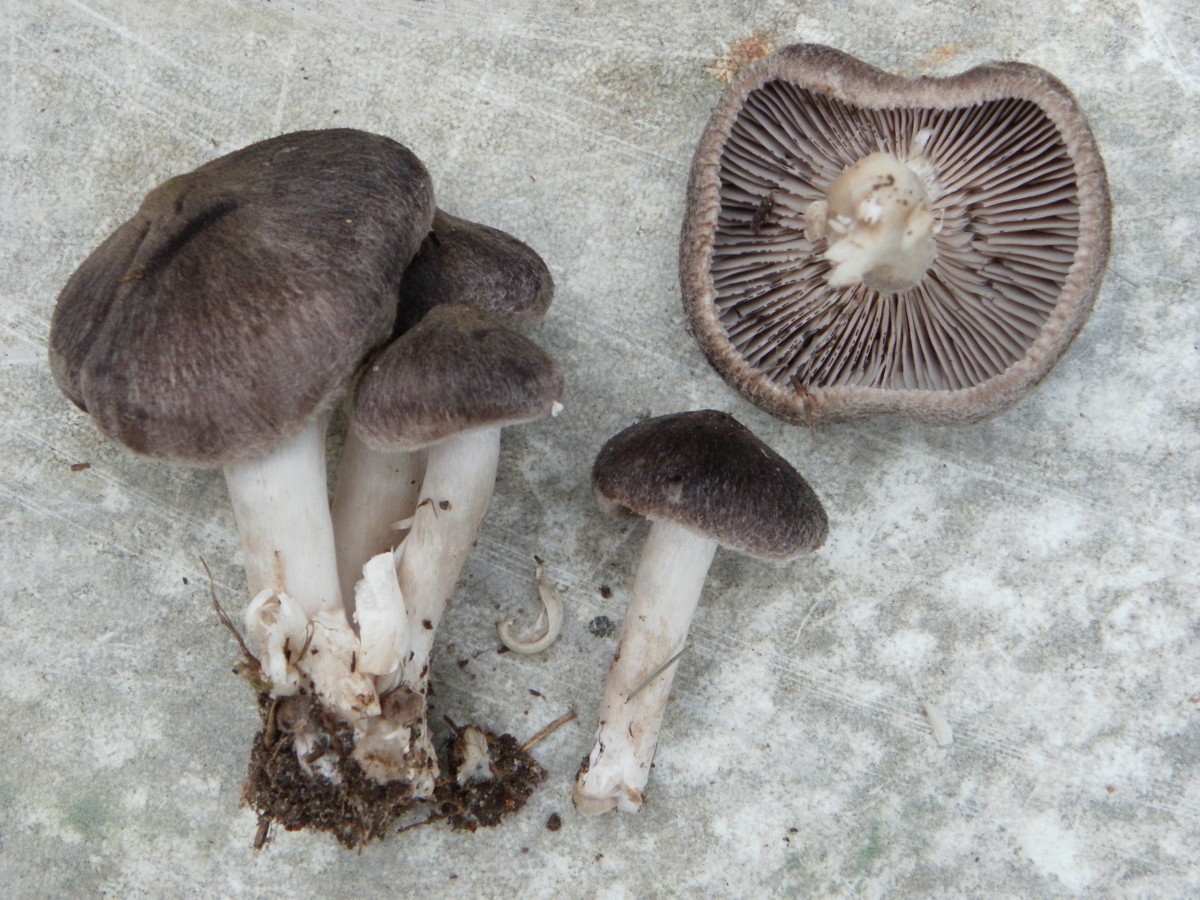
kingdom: Fungi
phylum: Basidiomycota
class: Agaricomycetes
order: Agaricales
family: Tricholomataceae
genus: Tricholoma
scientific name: Tricholoma terreum
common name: jordfarvet ridderhat
